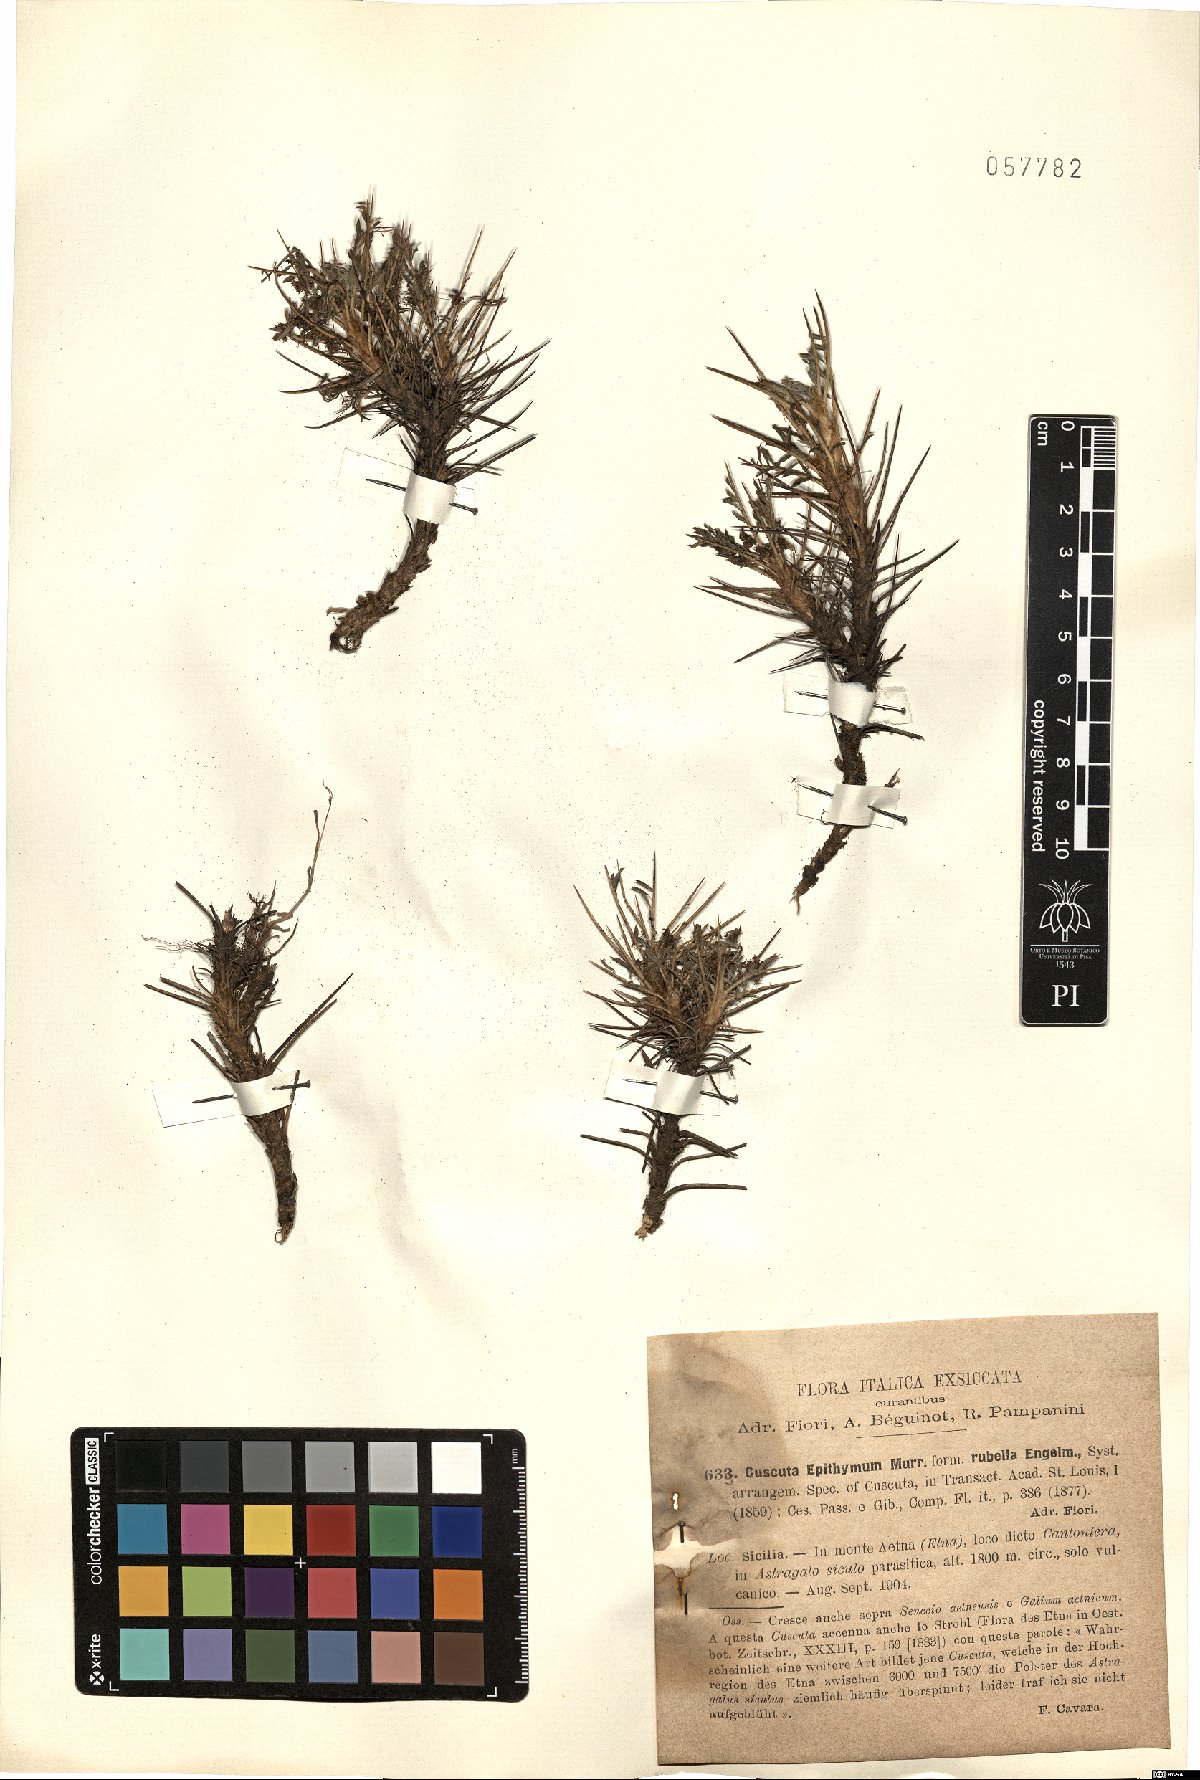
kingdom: Plantae
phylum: Tracheophyta
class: Magnoliopsida
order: Solanales
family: Convolvulaceae
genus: Cuscuta
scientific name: Cuscuta epithymum
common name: Clover dodder
